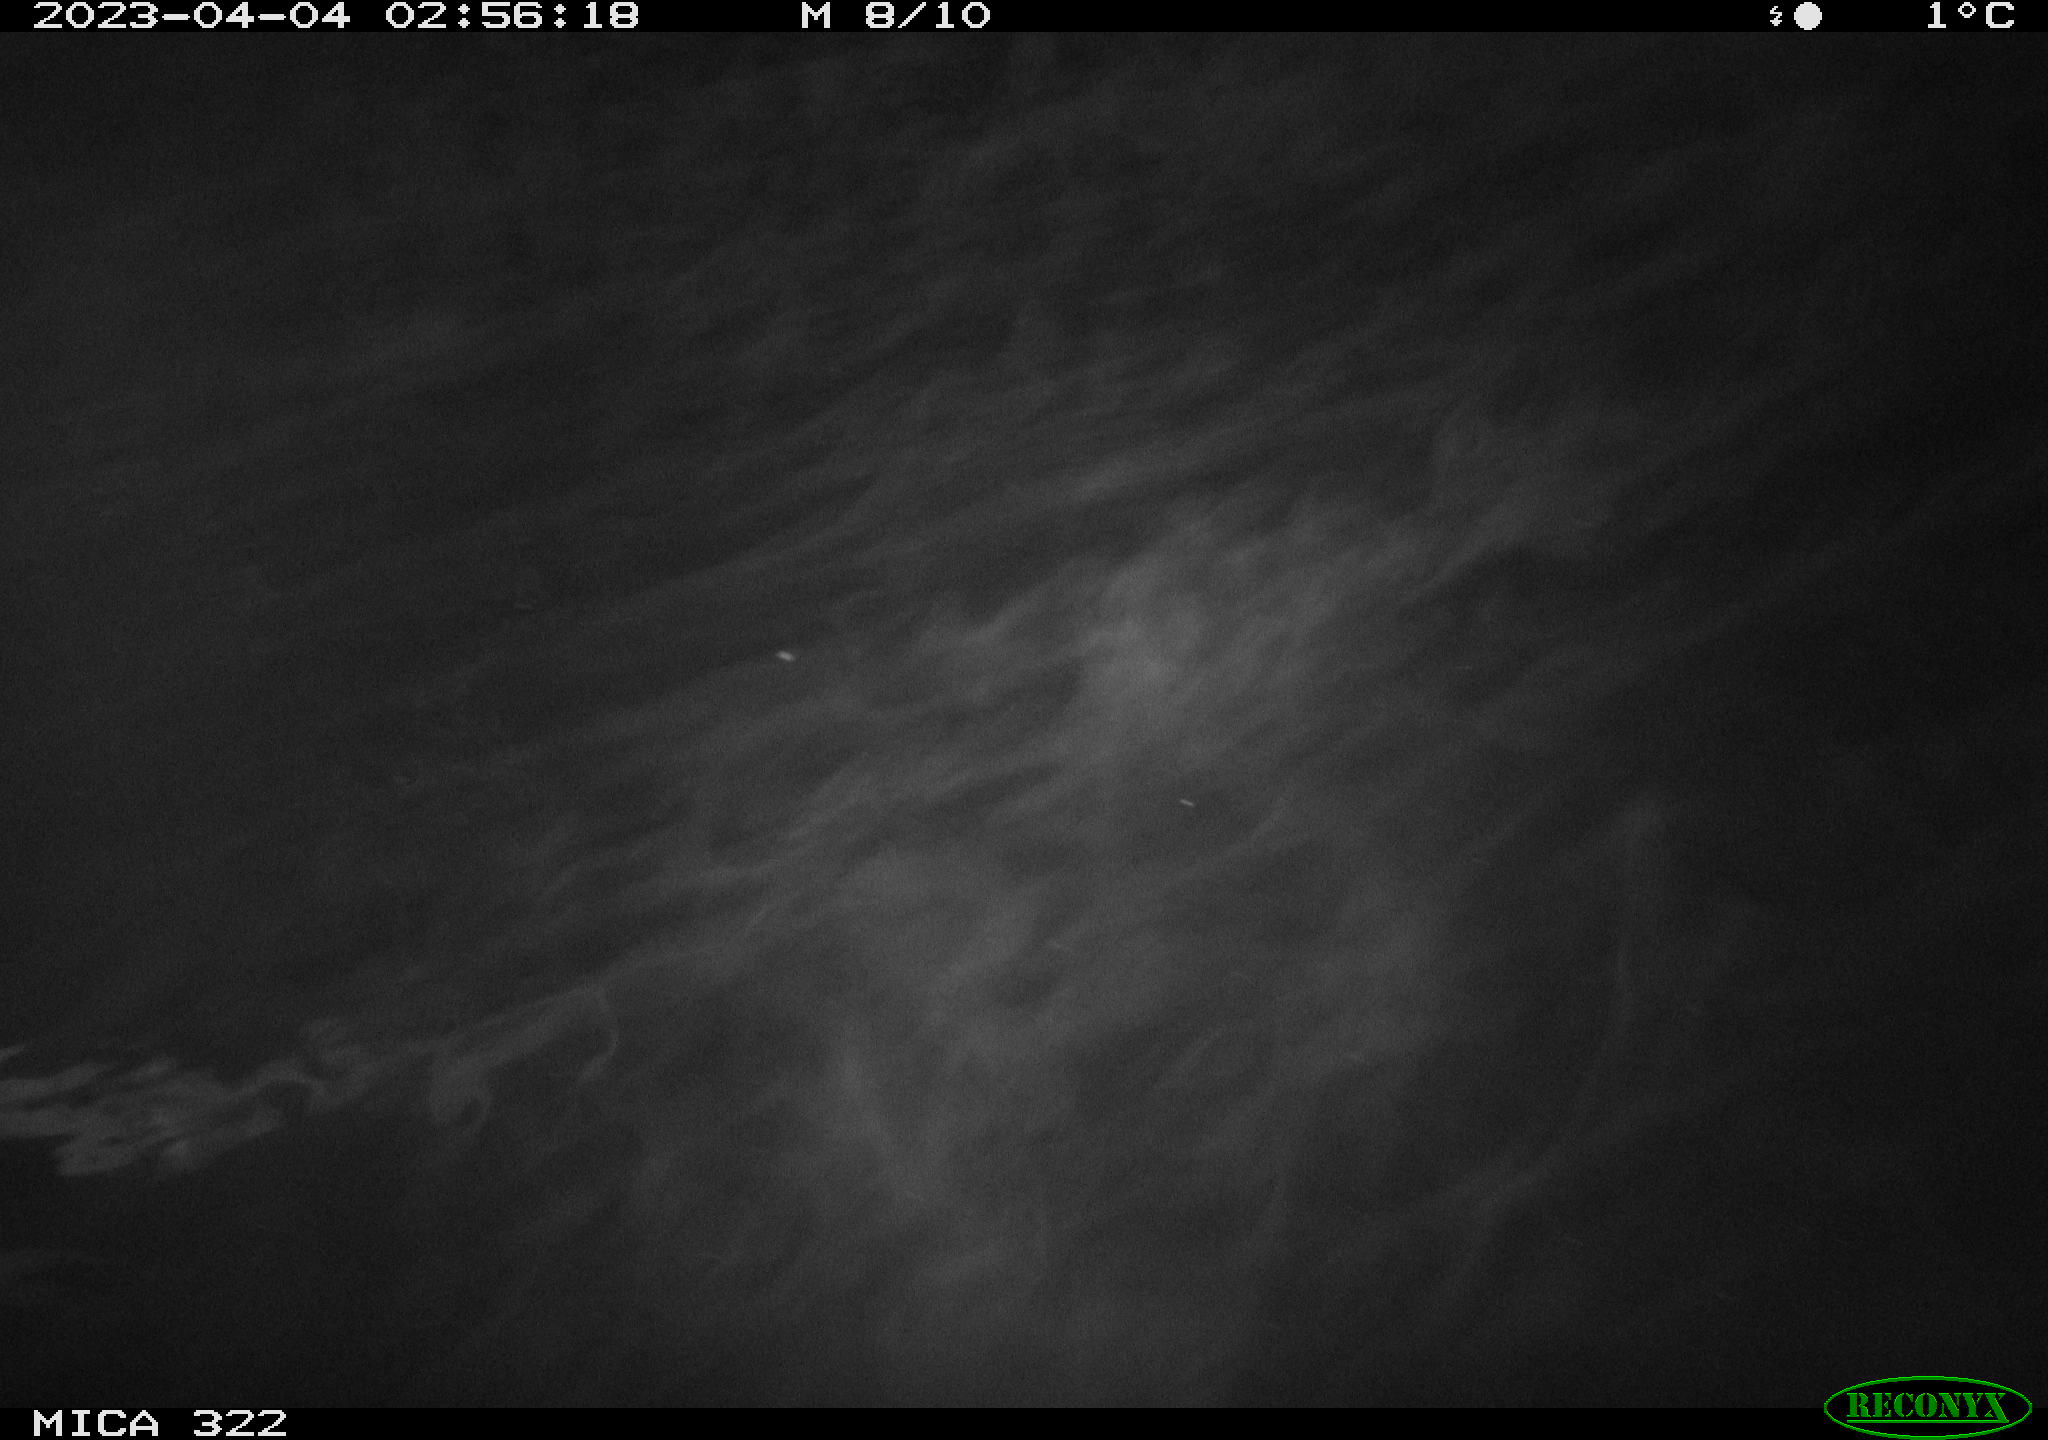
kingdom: Animalia
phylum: Chordata
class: Mammalia
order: Rodentia
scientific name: Rodentia
